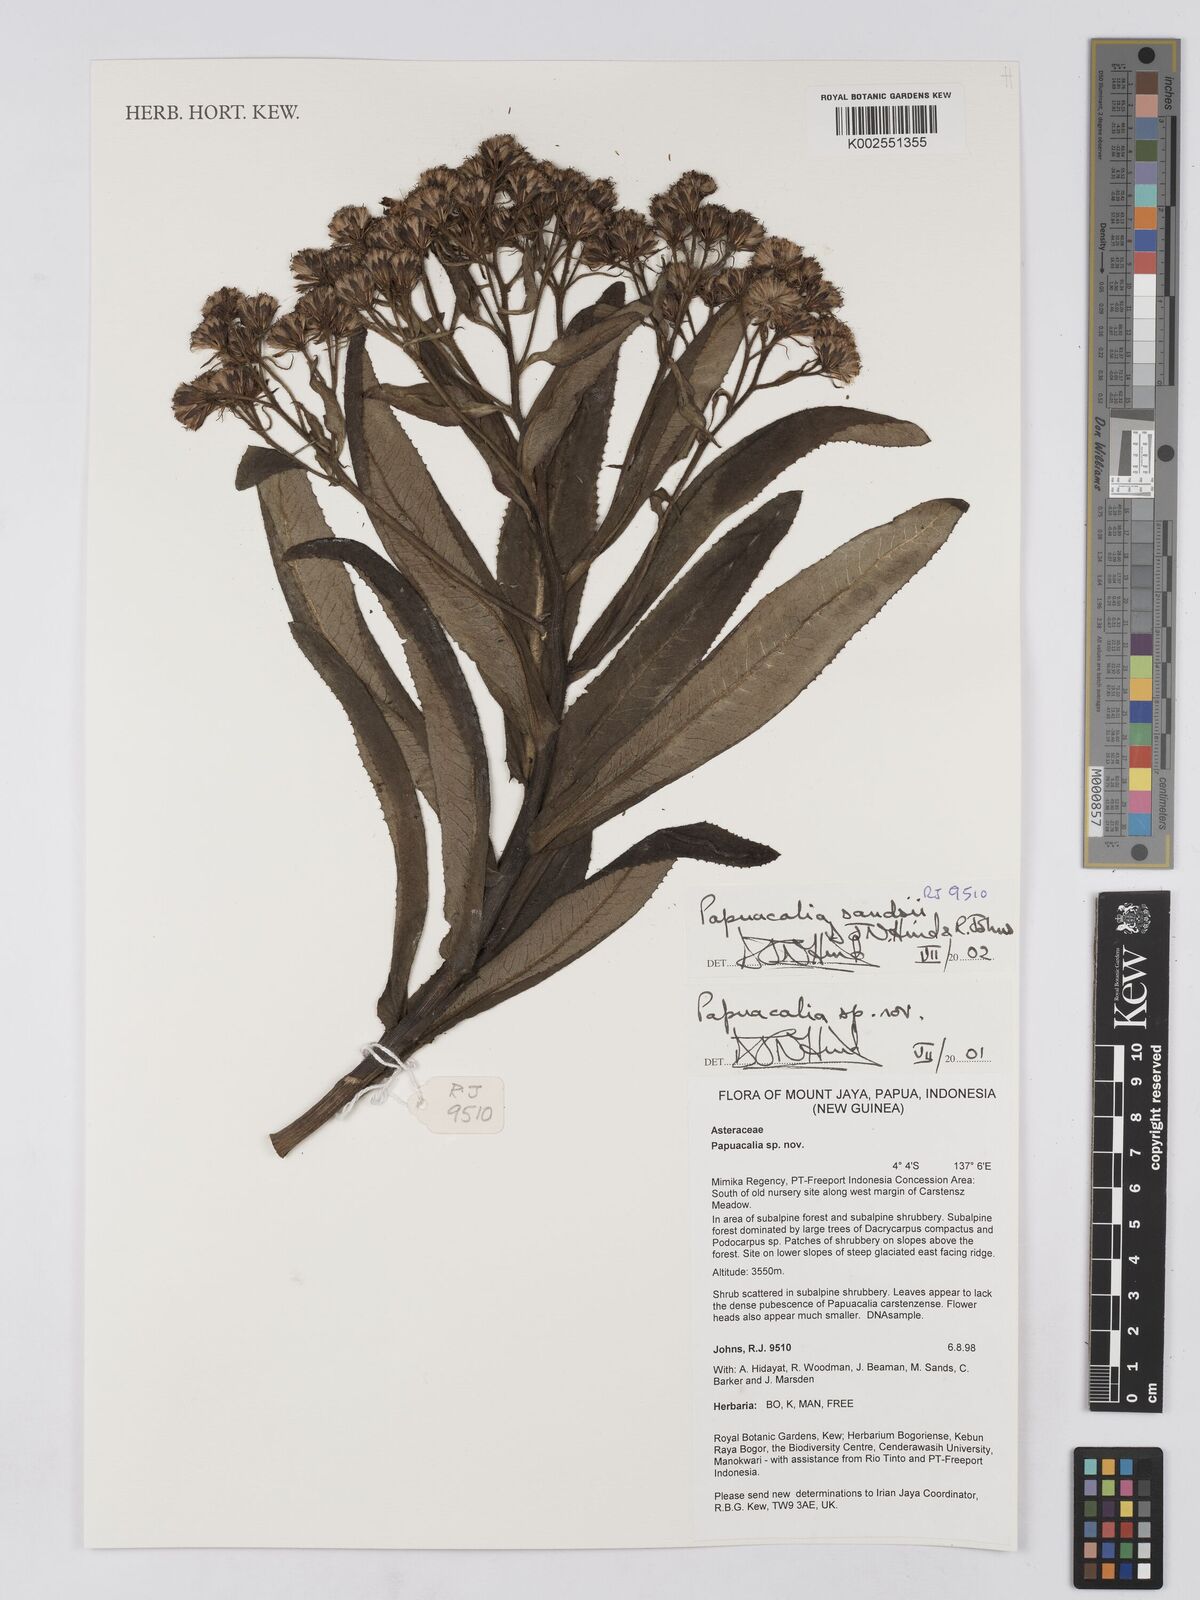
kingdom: Plantae
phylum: Tracheophyta
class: Magnoliopsida
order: Asterales
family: Asteraceae
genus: Papuacalia
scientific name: Papuacalia sandsii
